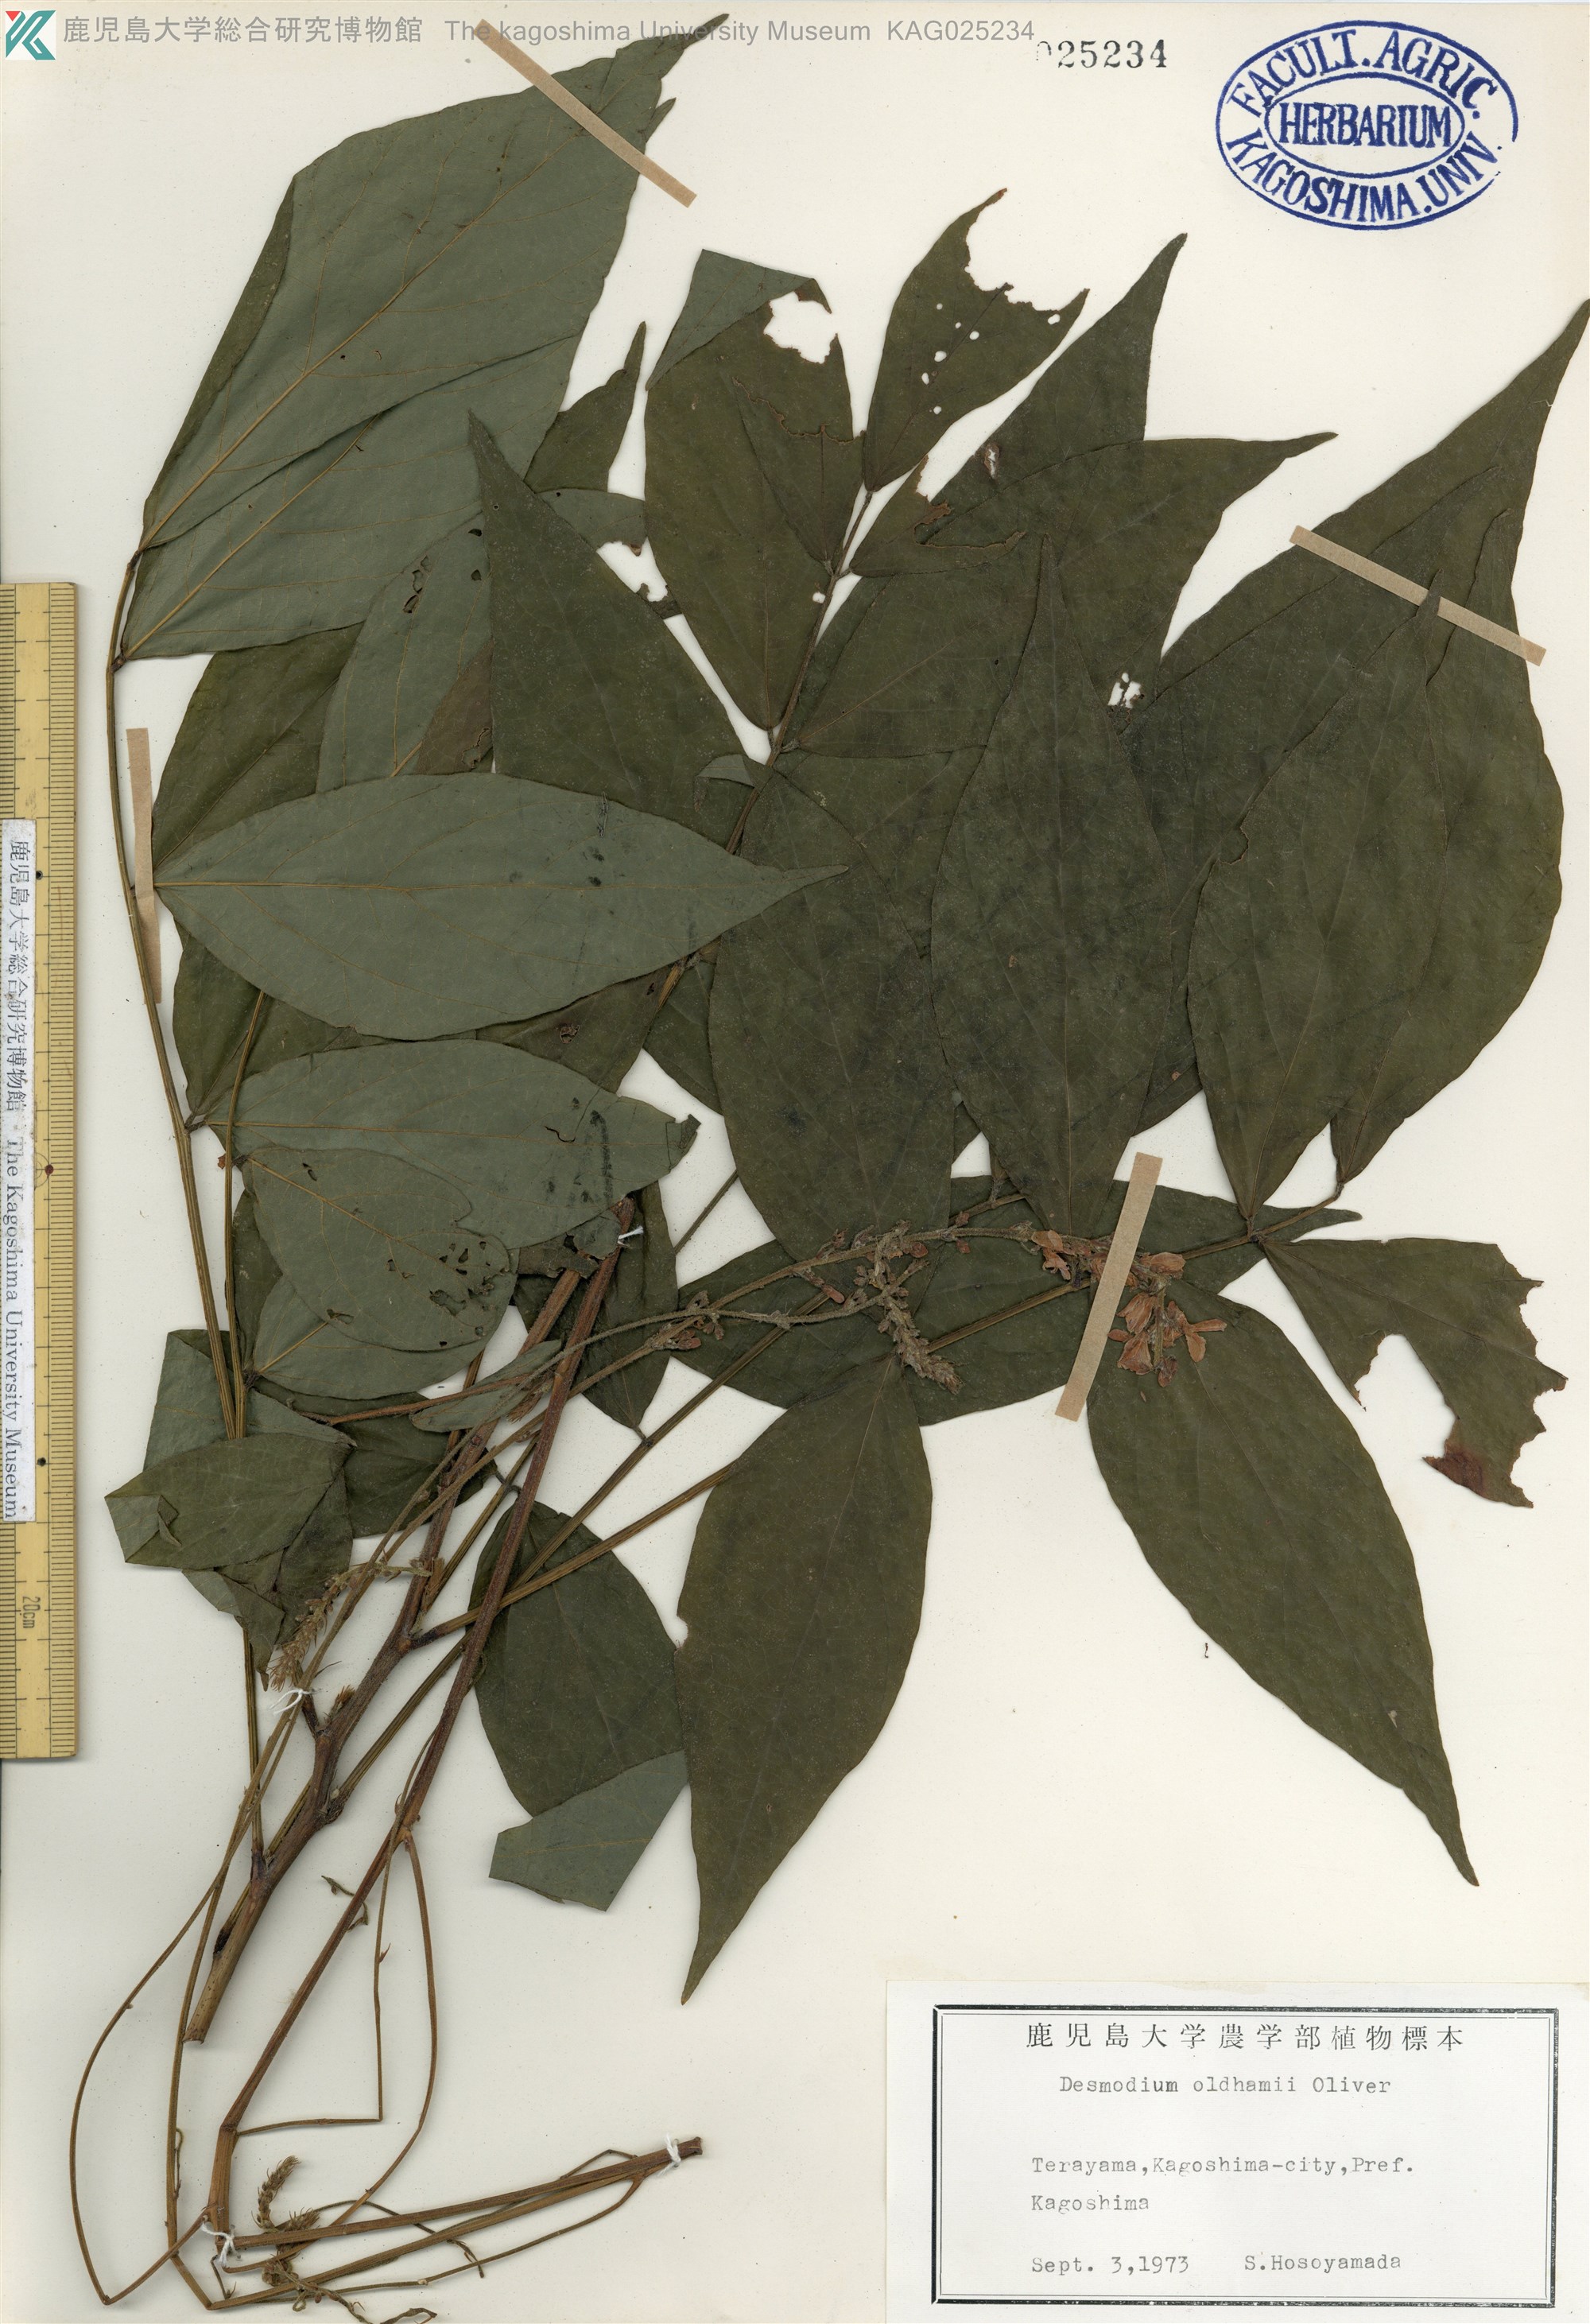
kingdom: Plantae
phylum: Tracheophyta
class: Magnoliopsida
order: Fabales
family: Fabaceae
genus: Hylodesmum
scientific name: Hylodesmum oldhamii
